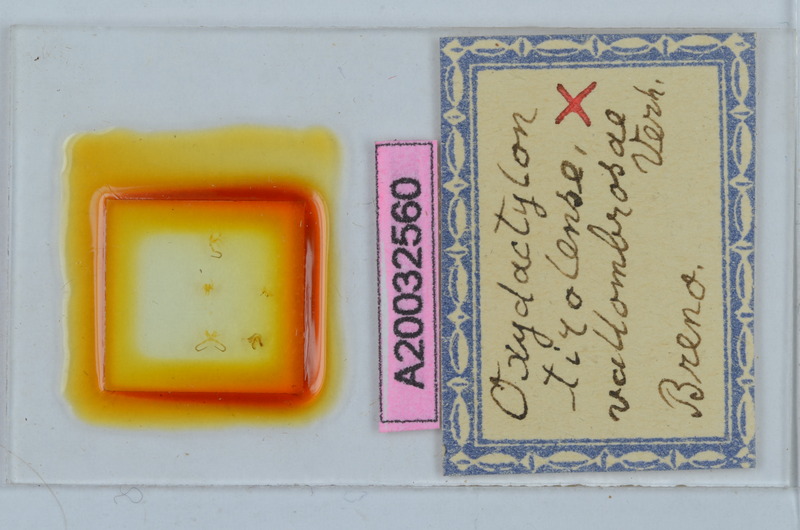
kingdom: Animalia
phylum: Arthropoda
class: Diplopoda
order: Chordeumatida
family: Craspedosomatidae
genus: Iulogona
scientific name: Iulogona tirolensis
